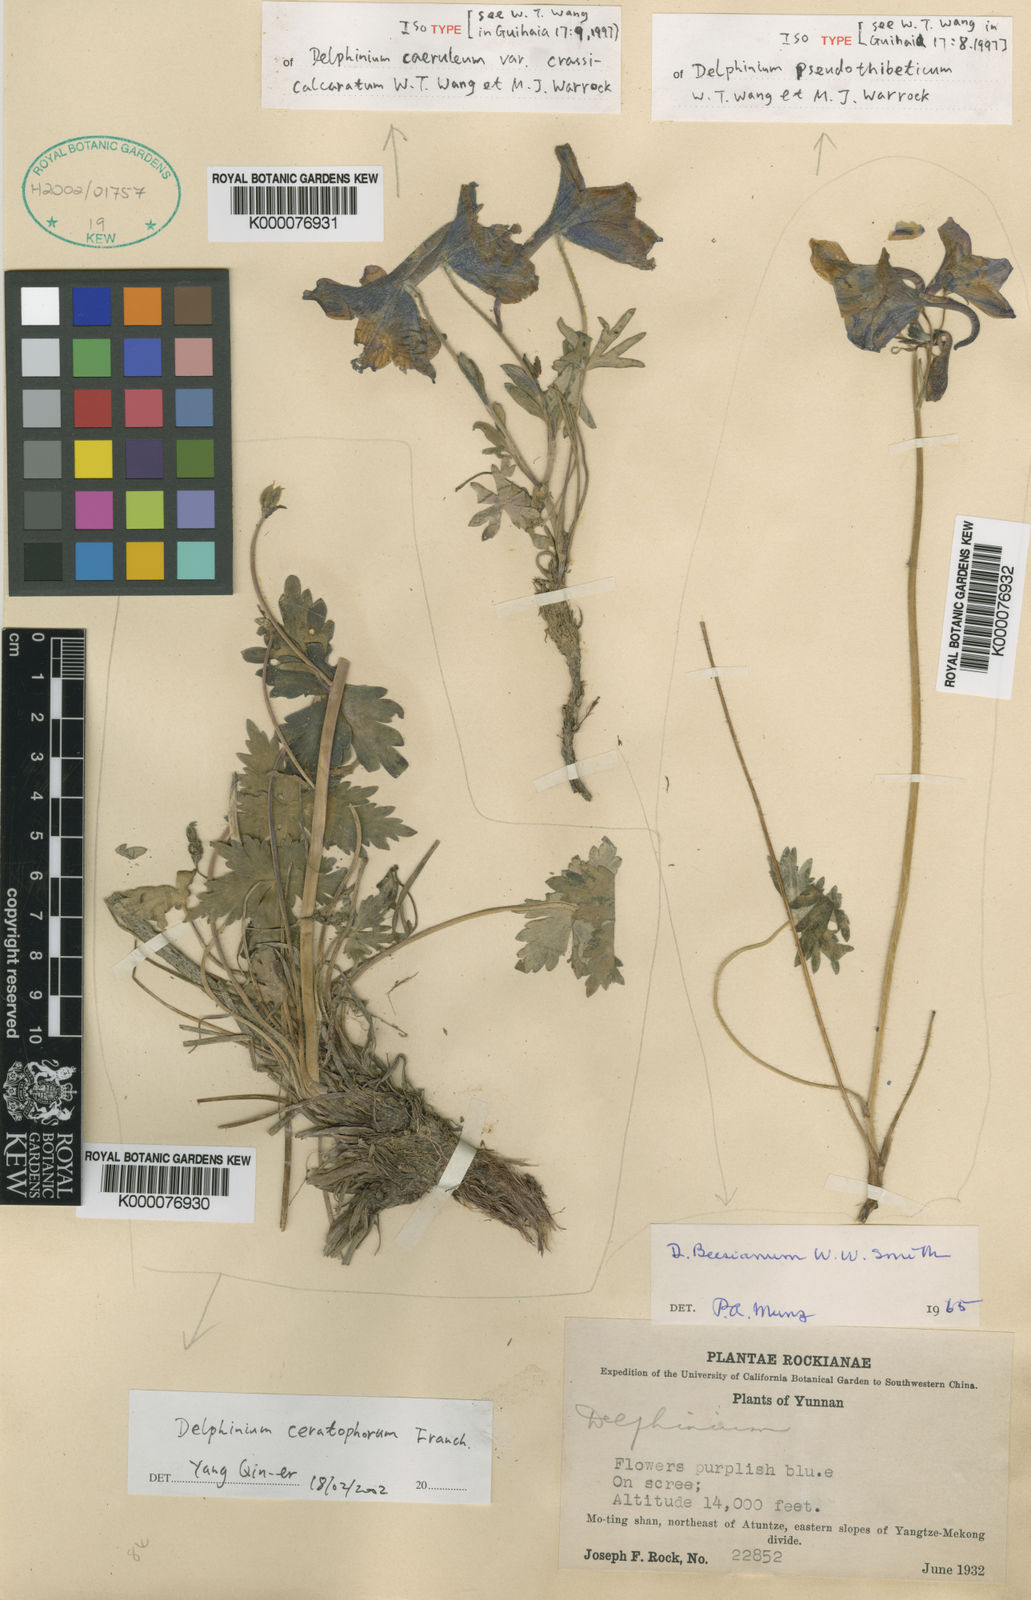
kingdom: Plantae
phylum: Tracheophyta
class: Magnoliopsida
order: Ranunculales
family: Ranunculaceae
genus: Delphinium
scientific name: Delphinium beesianum
